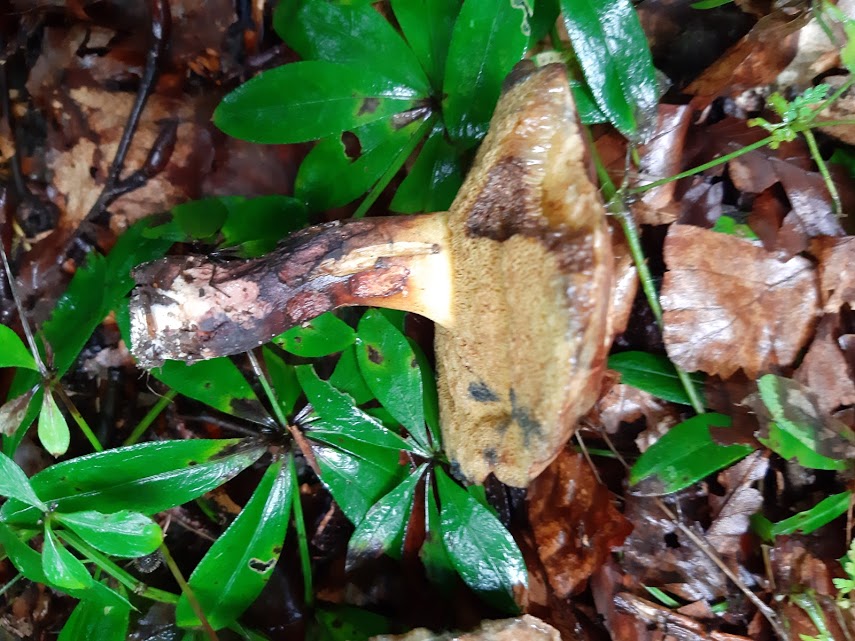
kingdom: Fungi
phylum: Basidiomycota
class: Agaricomycetes
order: Boletales
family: Boletaceae
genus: Cyanoboletus
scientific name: Cyanoboletus pulverulentus
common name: sortblånende rørhat
